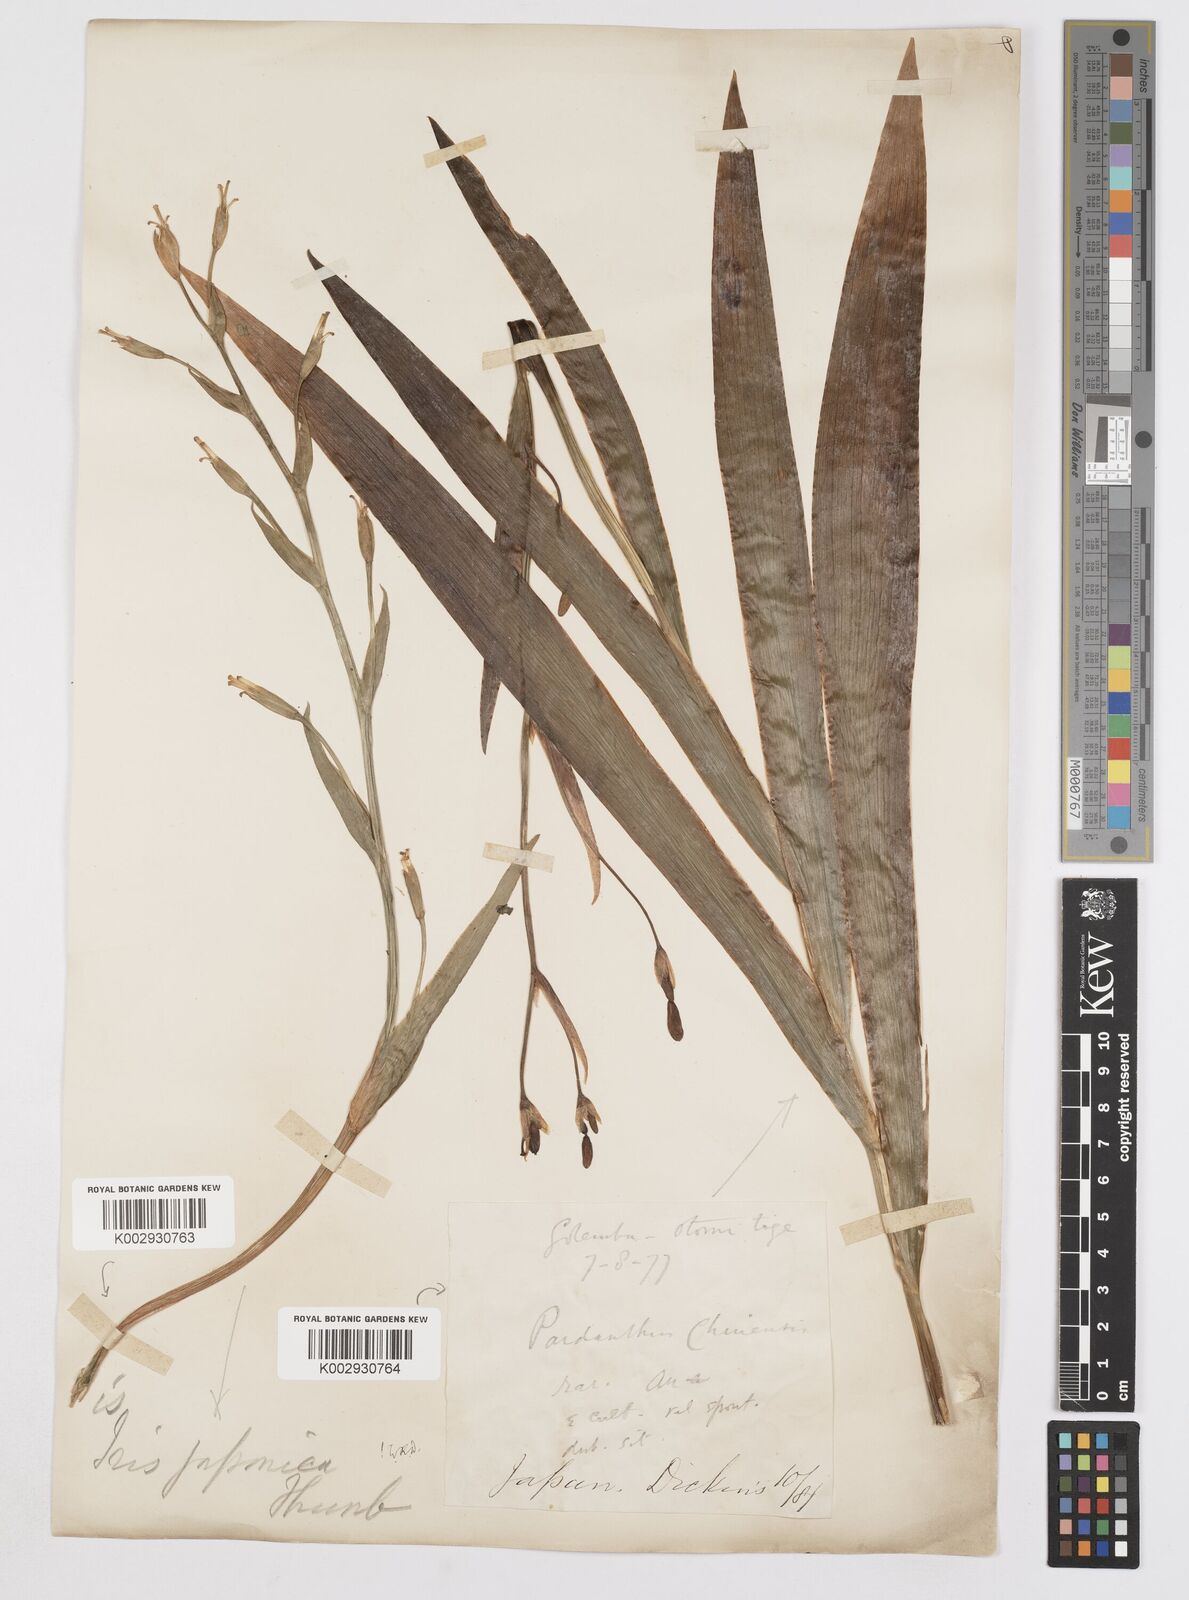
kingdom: Plantae
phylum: Tracheophyta
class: Liliopsida
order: Asparagales
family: Iridaceae
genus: Iris
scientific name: Iris japonica
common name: Butterfly-flower
